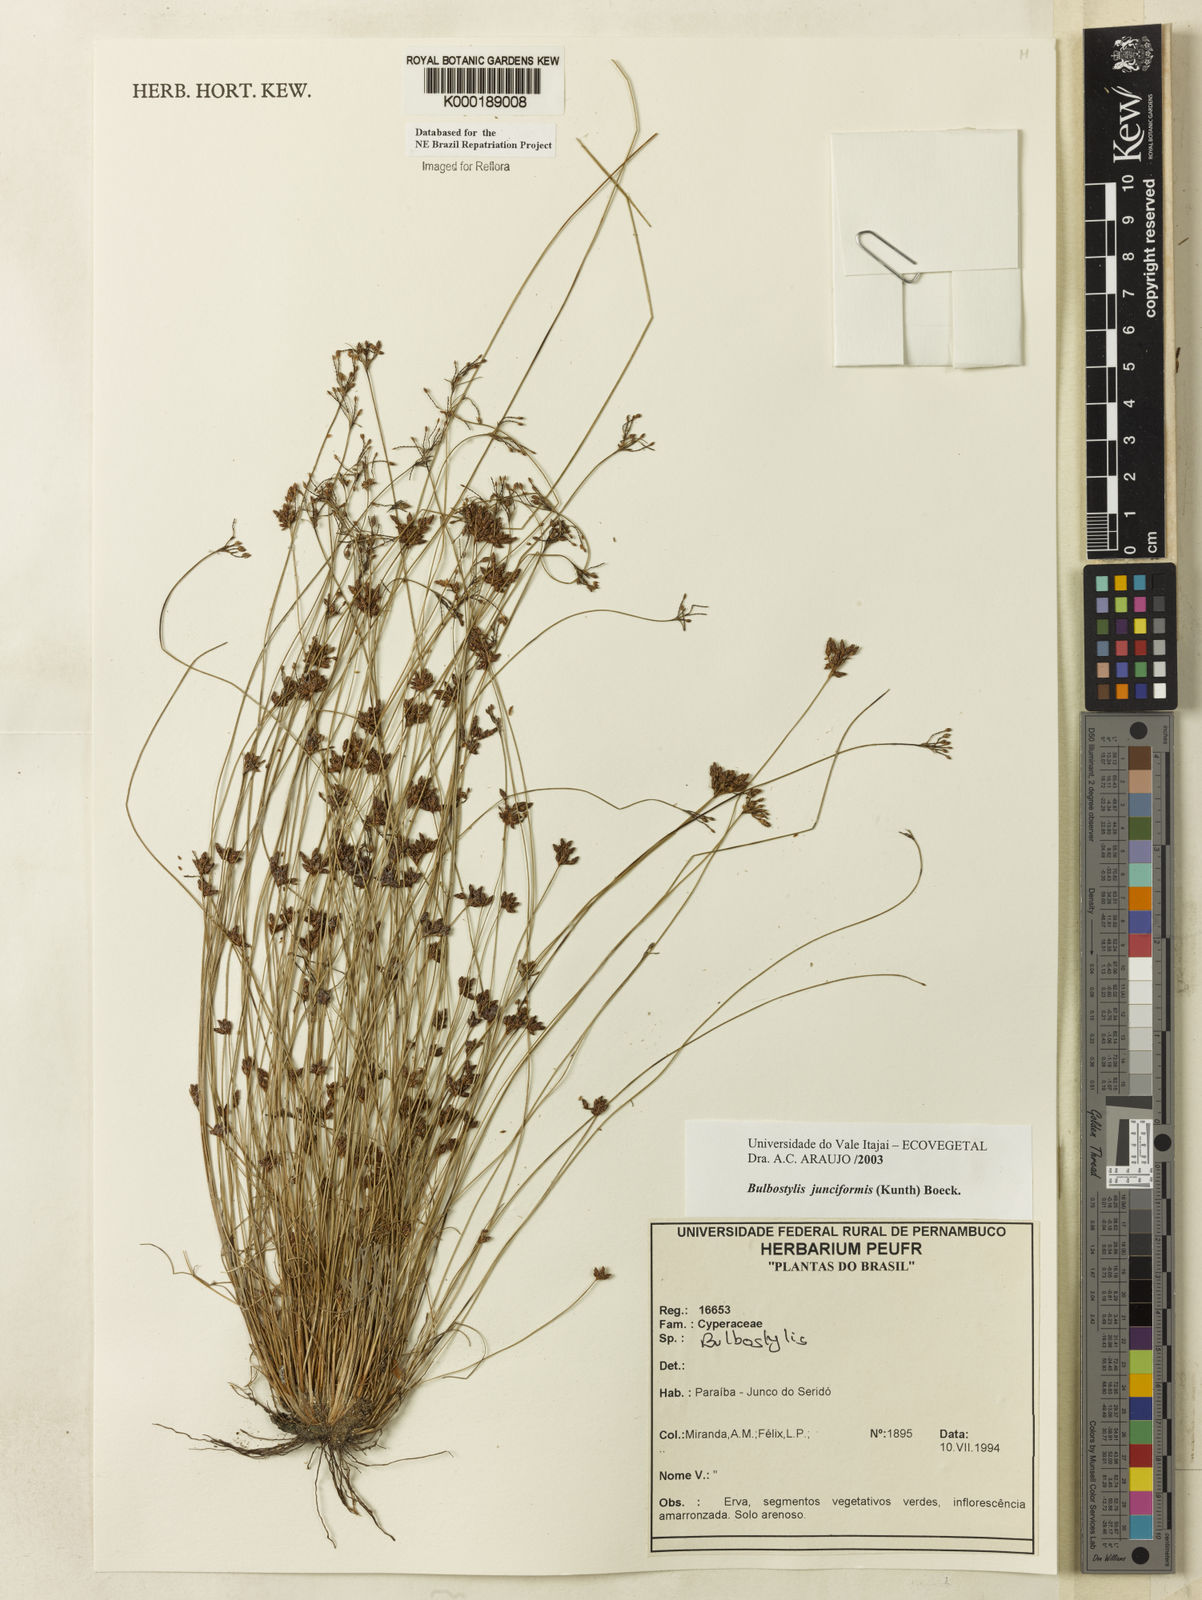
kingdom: Plantae
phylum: Tracheophyta
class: Liliopsida
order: Poales
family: Cyperaceae
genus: Bulbostylis
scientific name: Bulbostylis
